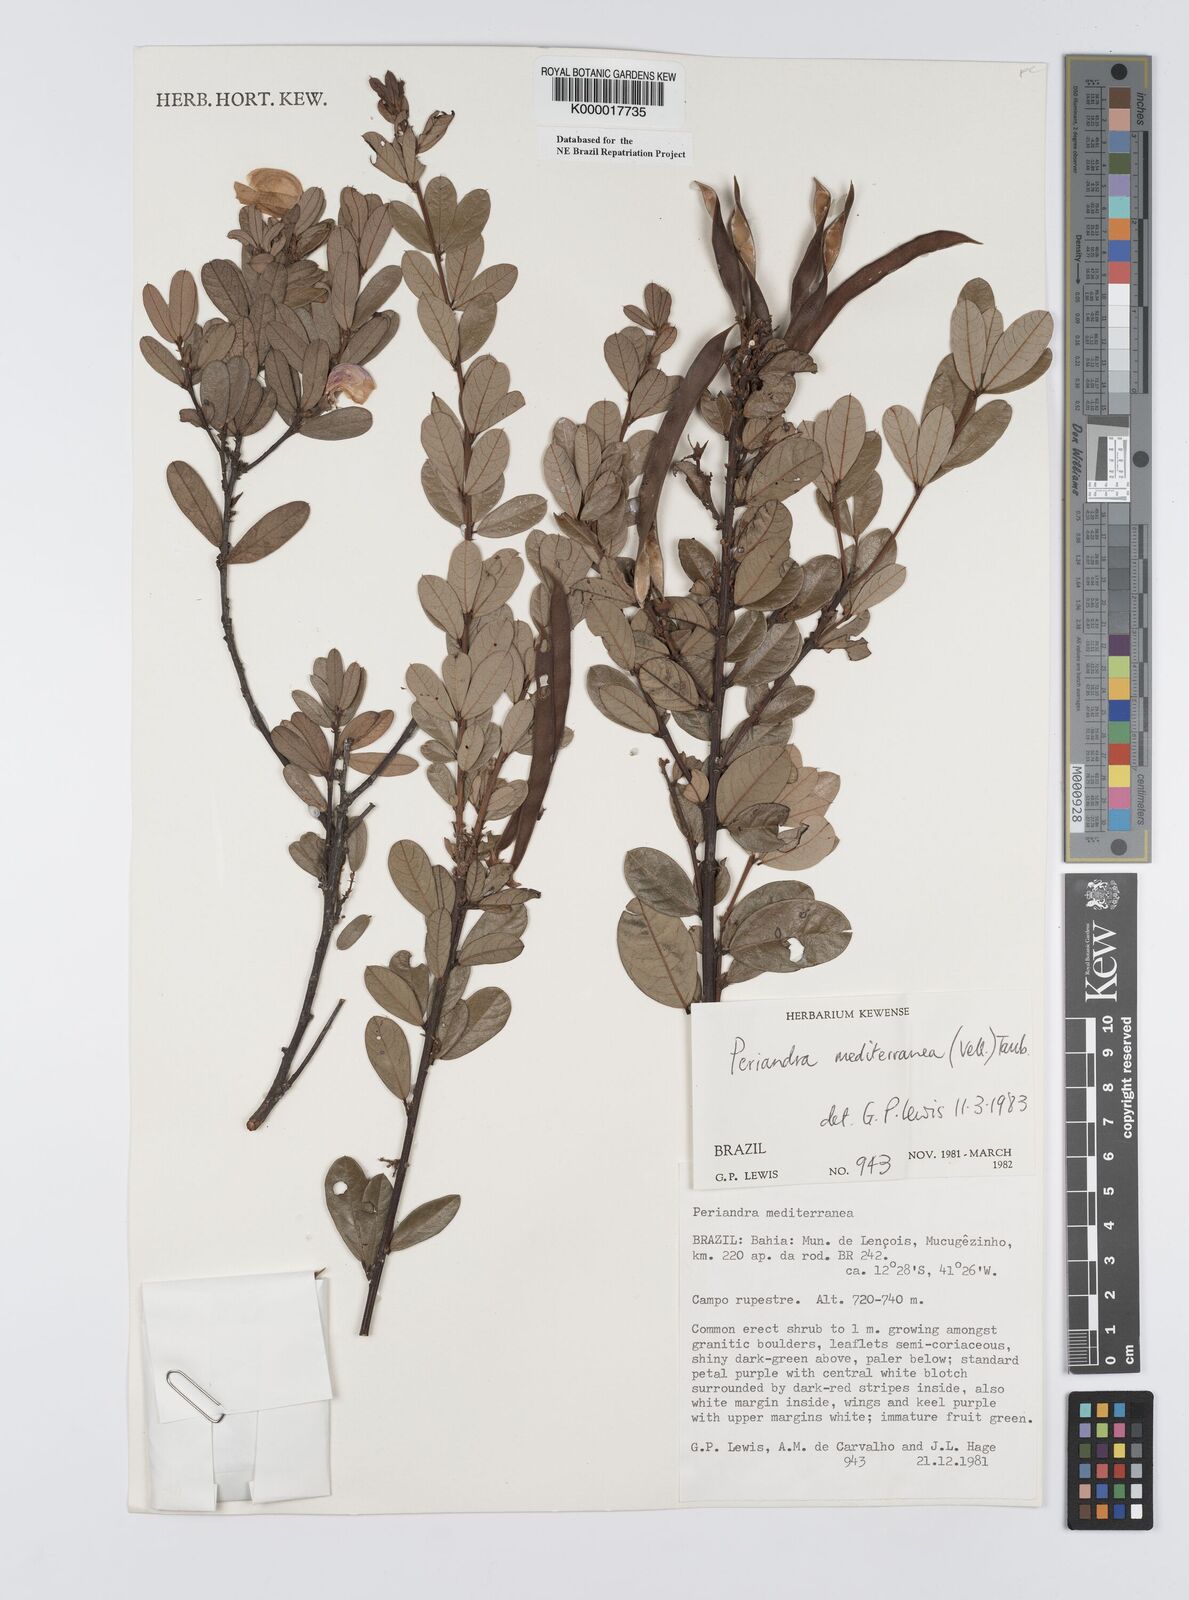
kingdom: Plantae
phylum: Tracheophyta
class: Magnoliopsida
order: Fabales
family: Fabaceae
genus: Periandra
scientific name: Periandra mediterranea
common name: Brazilian licorice
